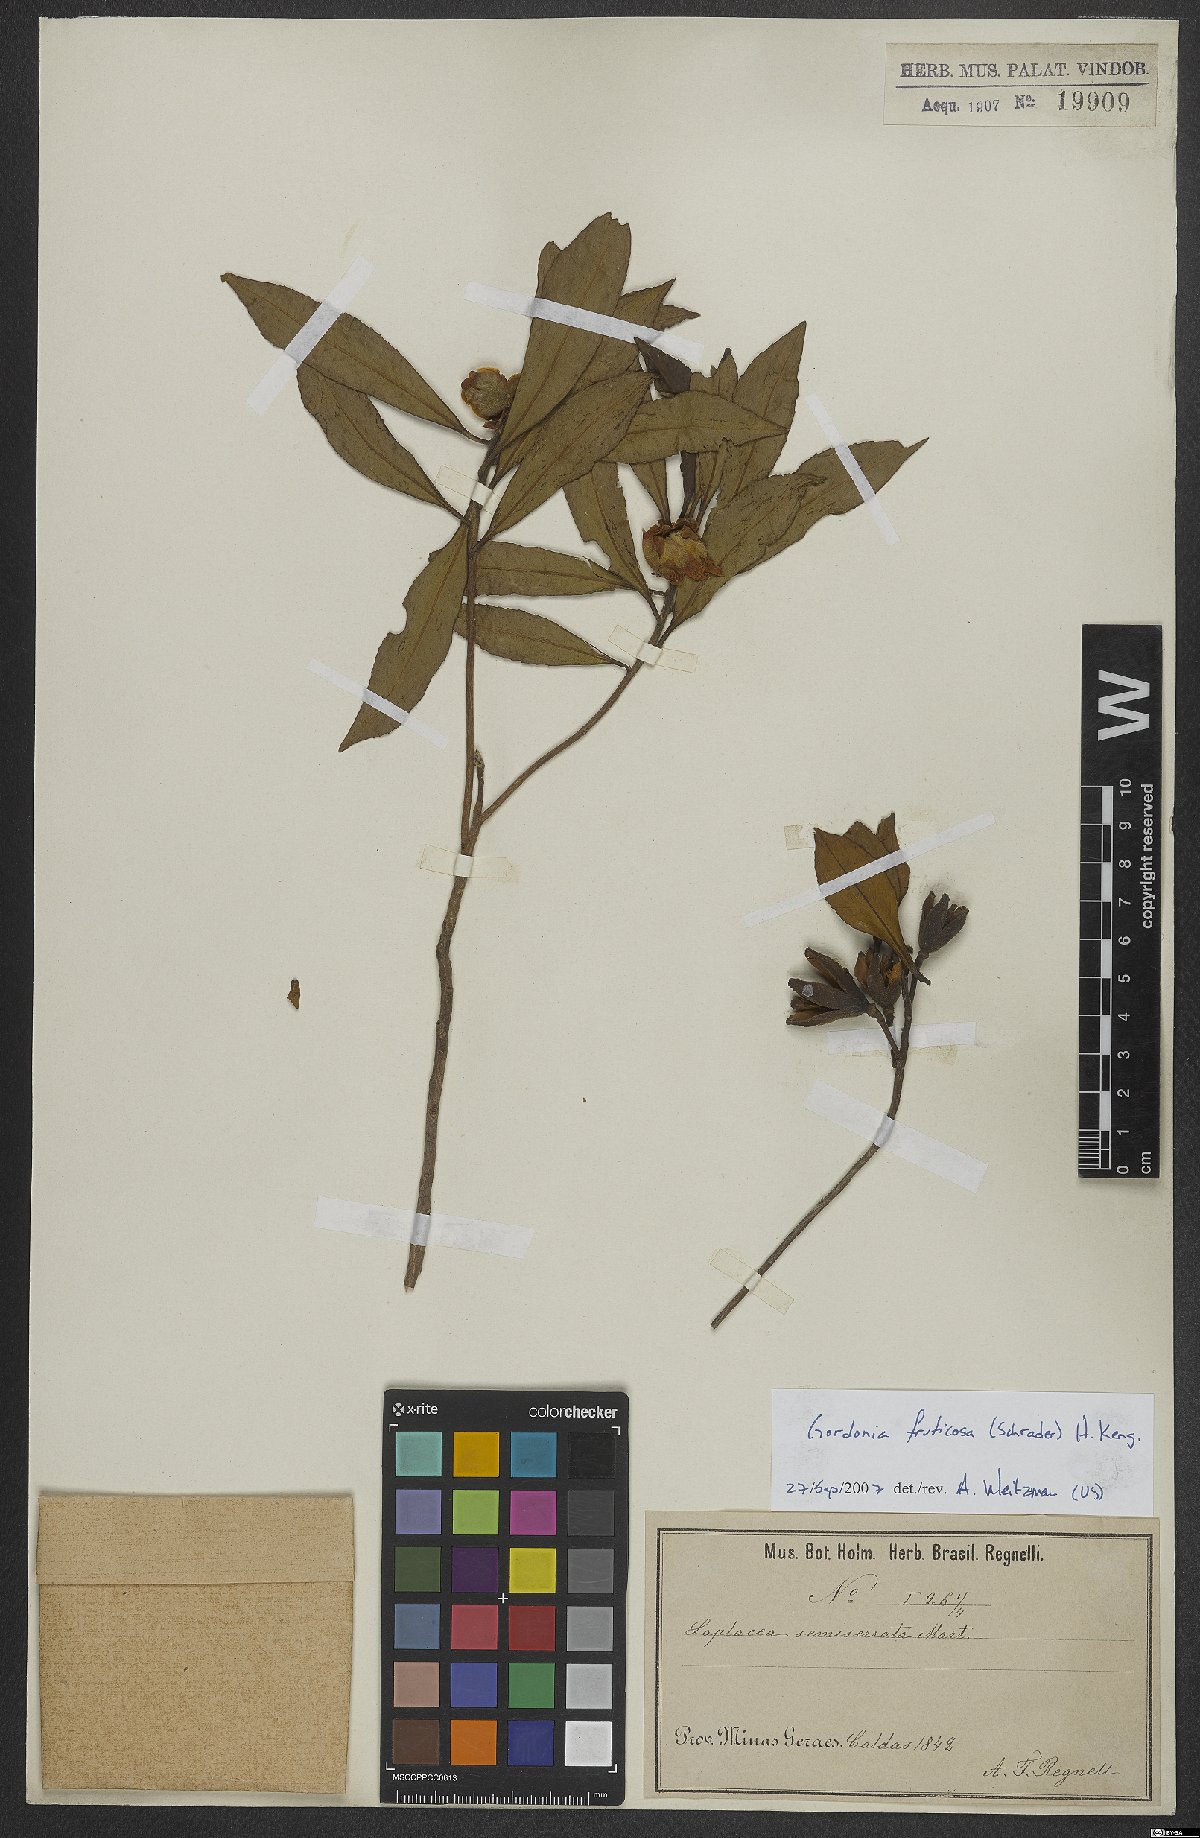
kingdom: Plantae
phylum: Tracheophyta
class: Magnoliopsida
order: Ericales
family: Theaceae
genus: Gordonia
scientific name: Gordonia acutifolia
